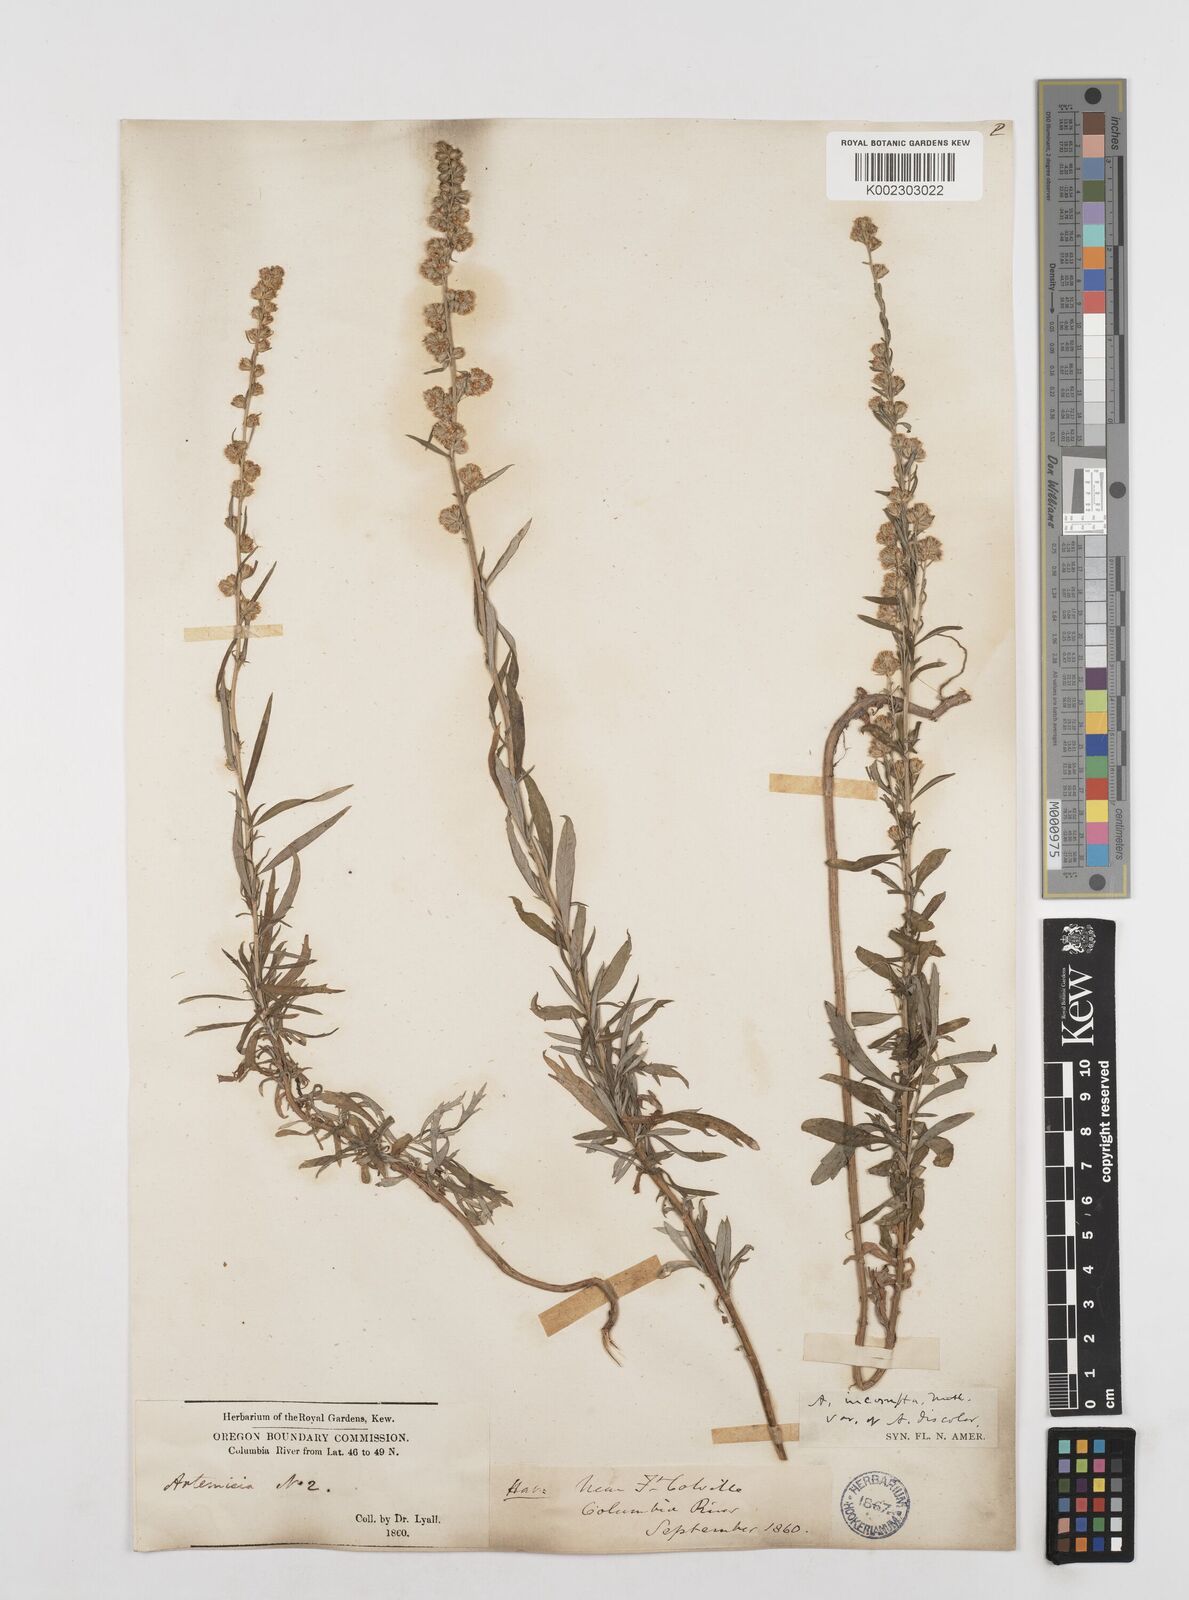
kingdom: Plantae
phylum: Tracheophyta
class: Magnoliopsida
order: Asterales
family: Asteraceae
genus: Artemisia
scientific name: Artemisia michauxiana
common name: Lemon sagewort
